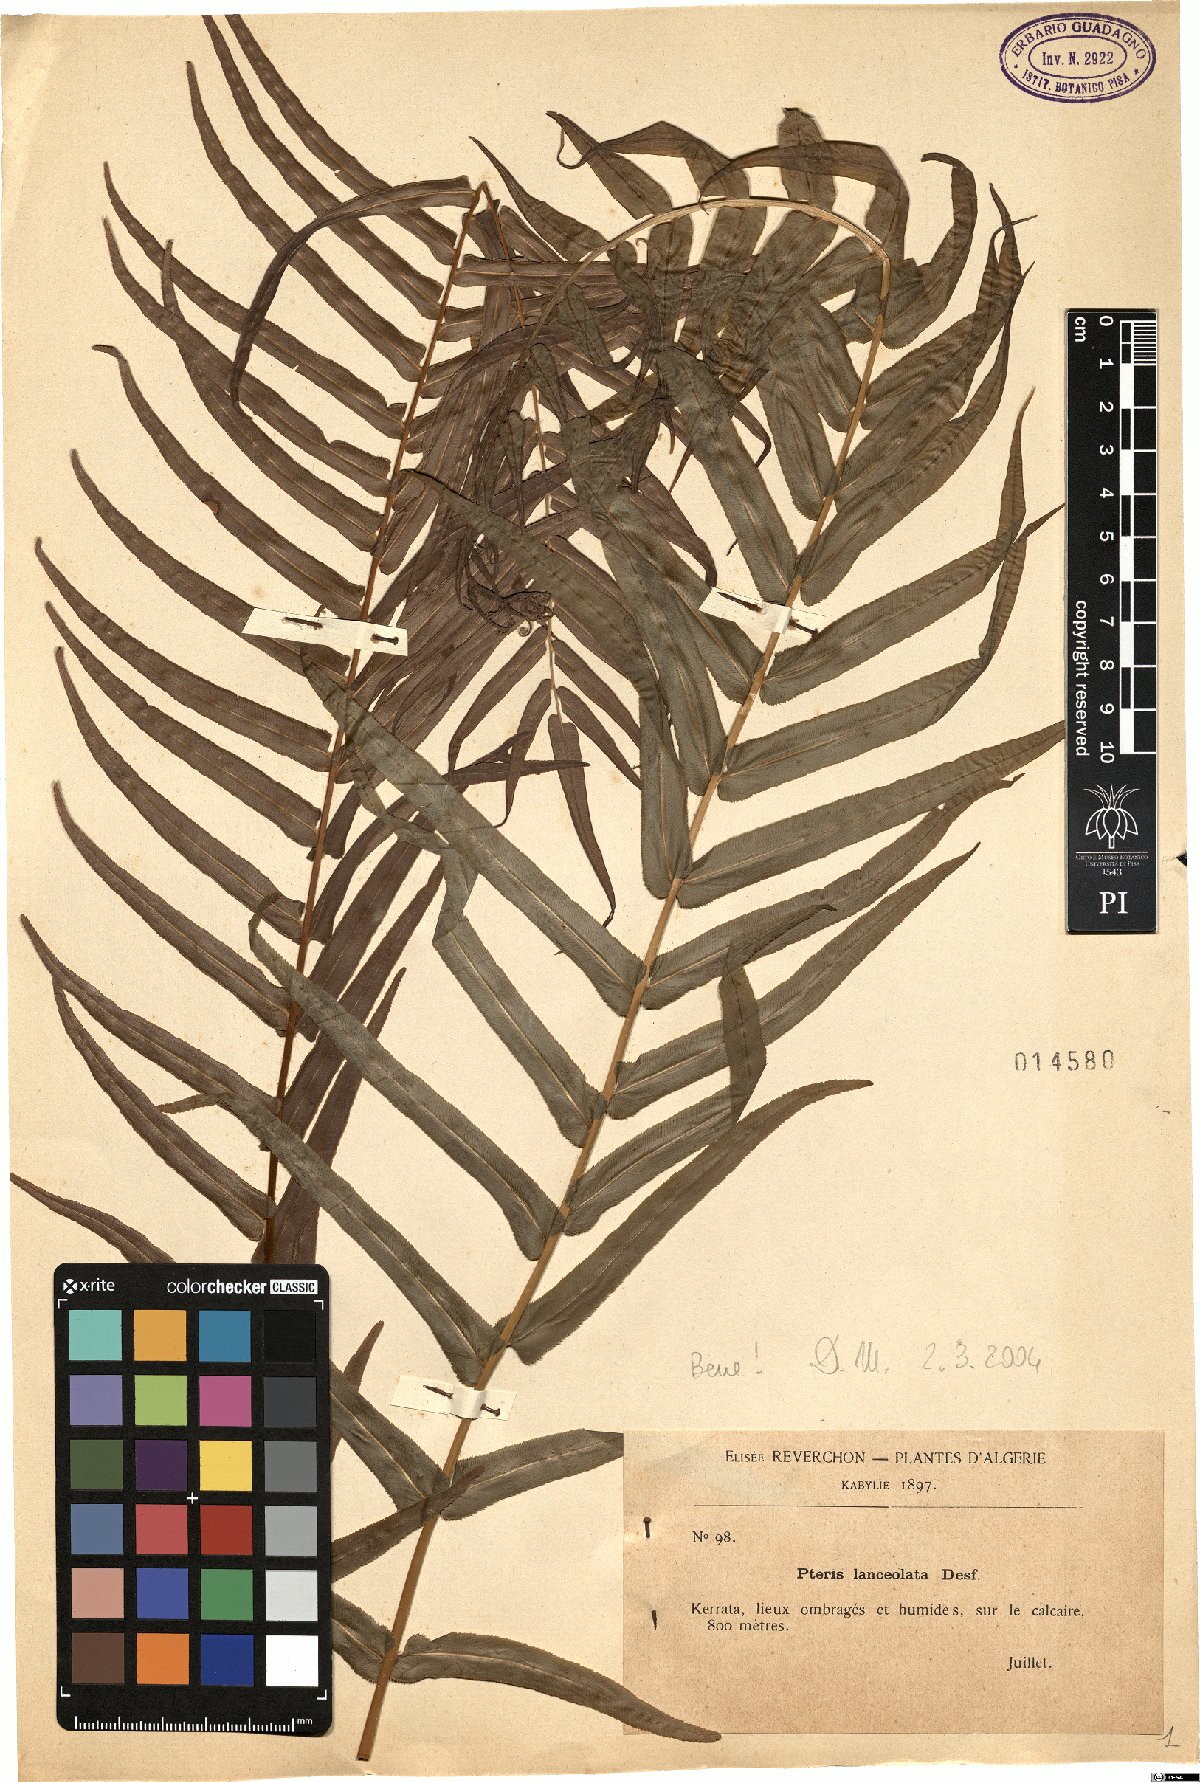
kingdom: Plantae
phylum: Tracheophyta
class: Polypodiopsida
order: Polypodiales
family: Pteridaceae
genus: Pteris
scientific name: Pteris vittata
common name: Ladder brake
